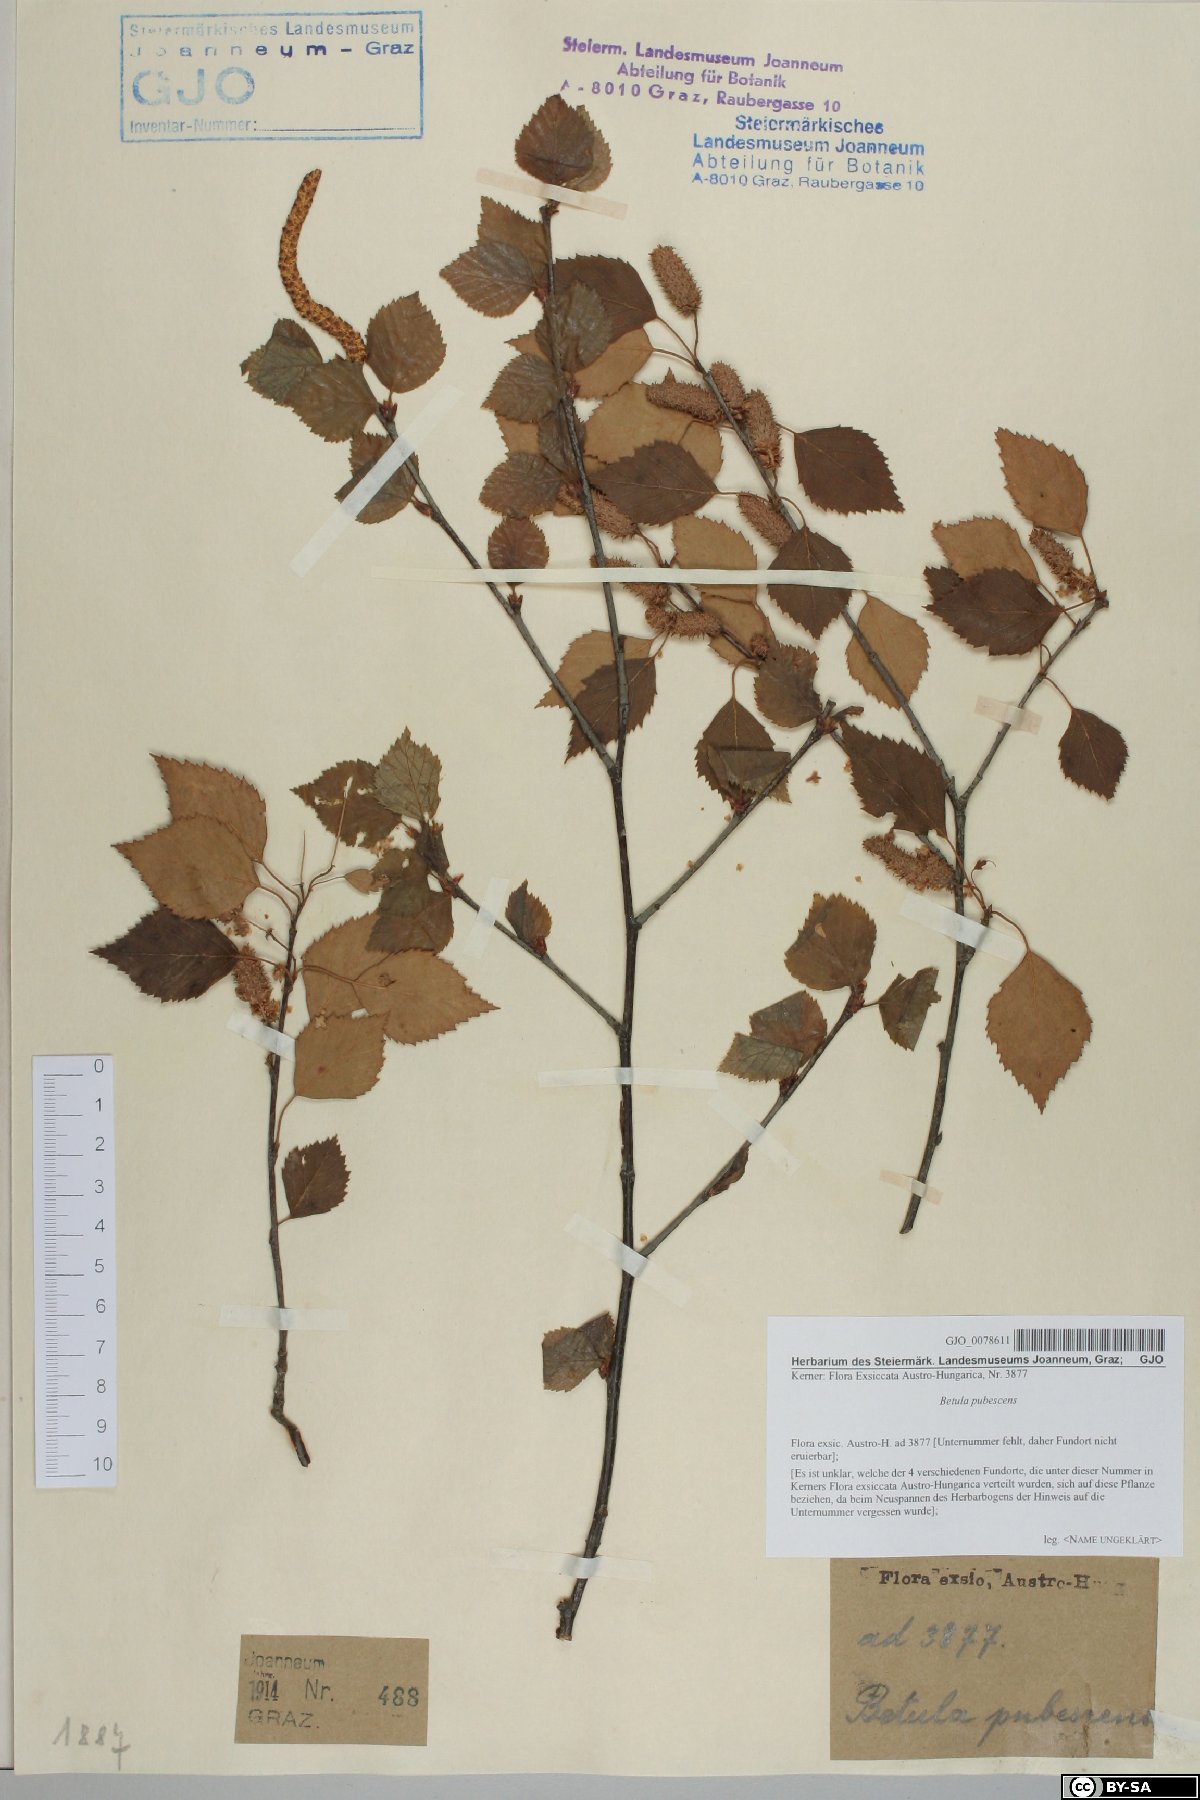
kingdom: Plantae
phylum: Tracheophyta
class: Magnoliopsida
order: Fagales
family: Betulaceae
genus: Betula
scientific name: Betula pubescens
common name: Downy birch
